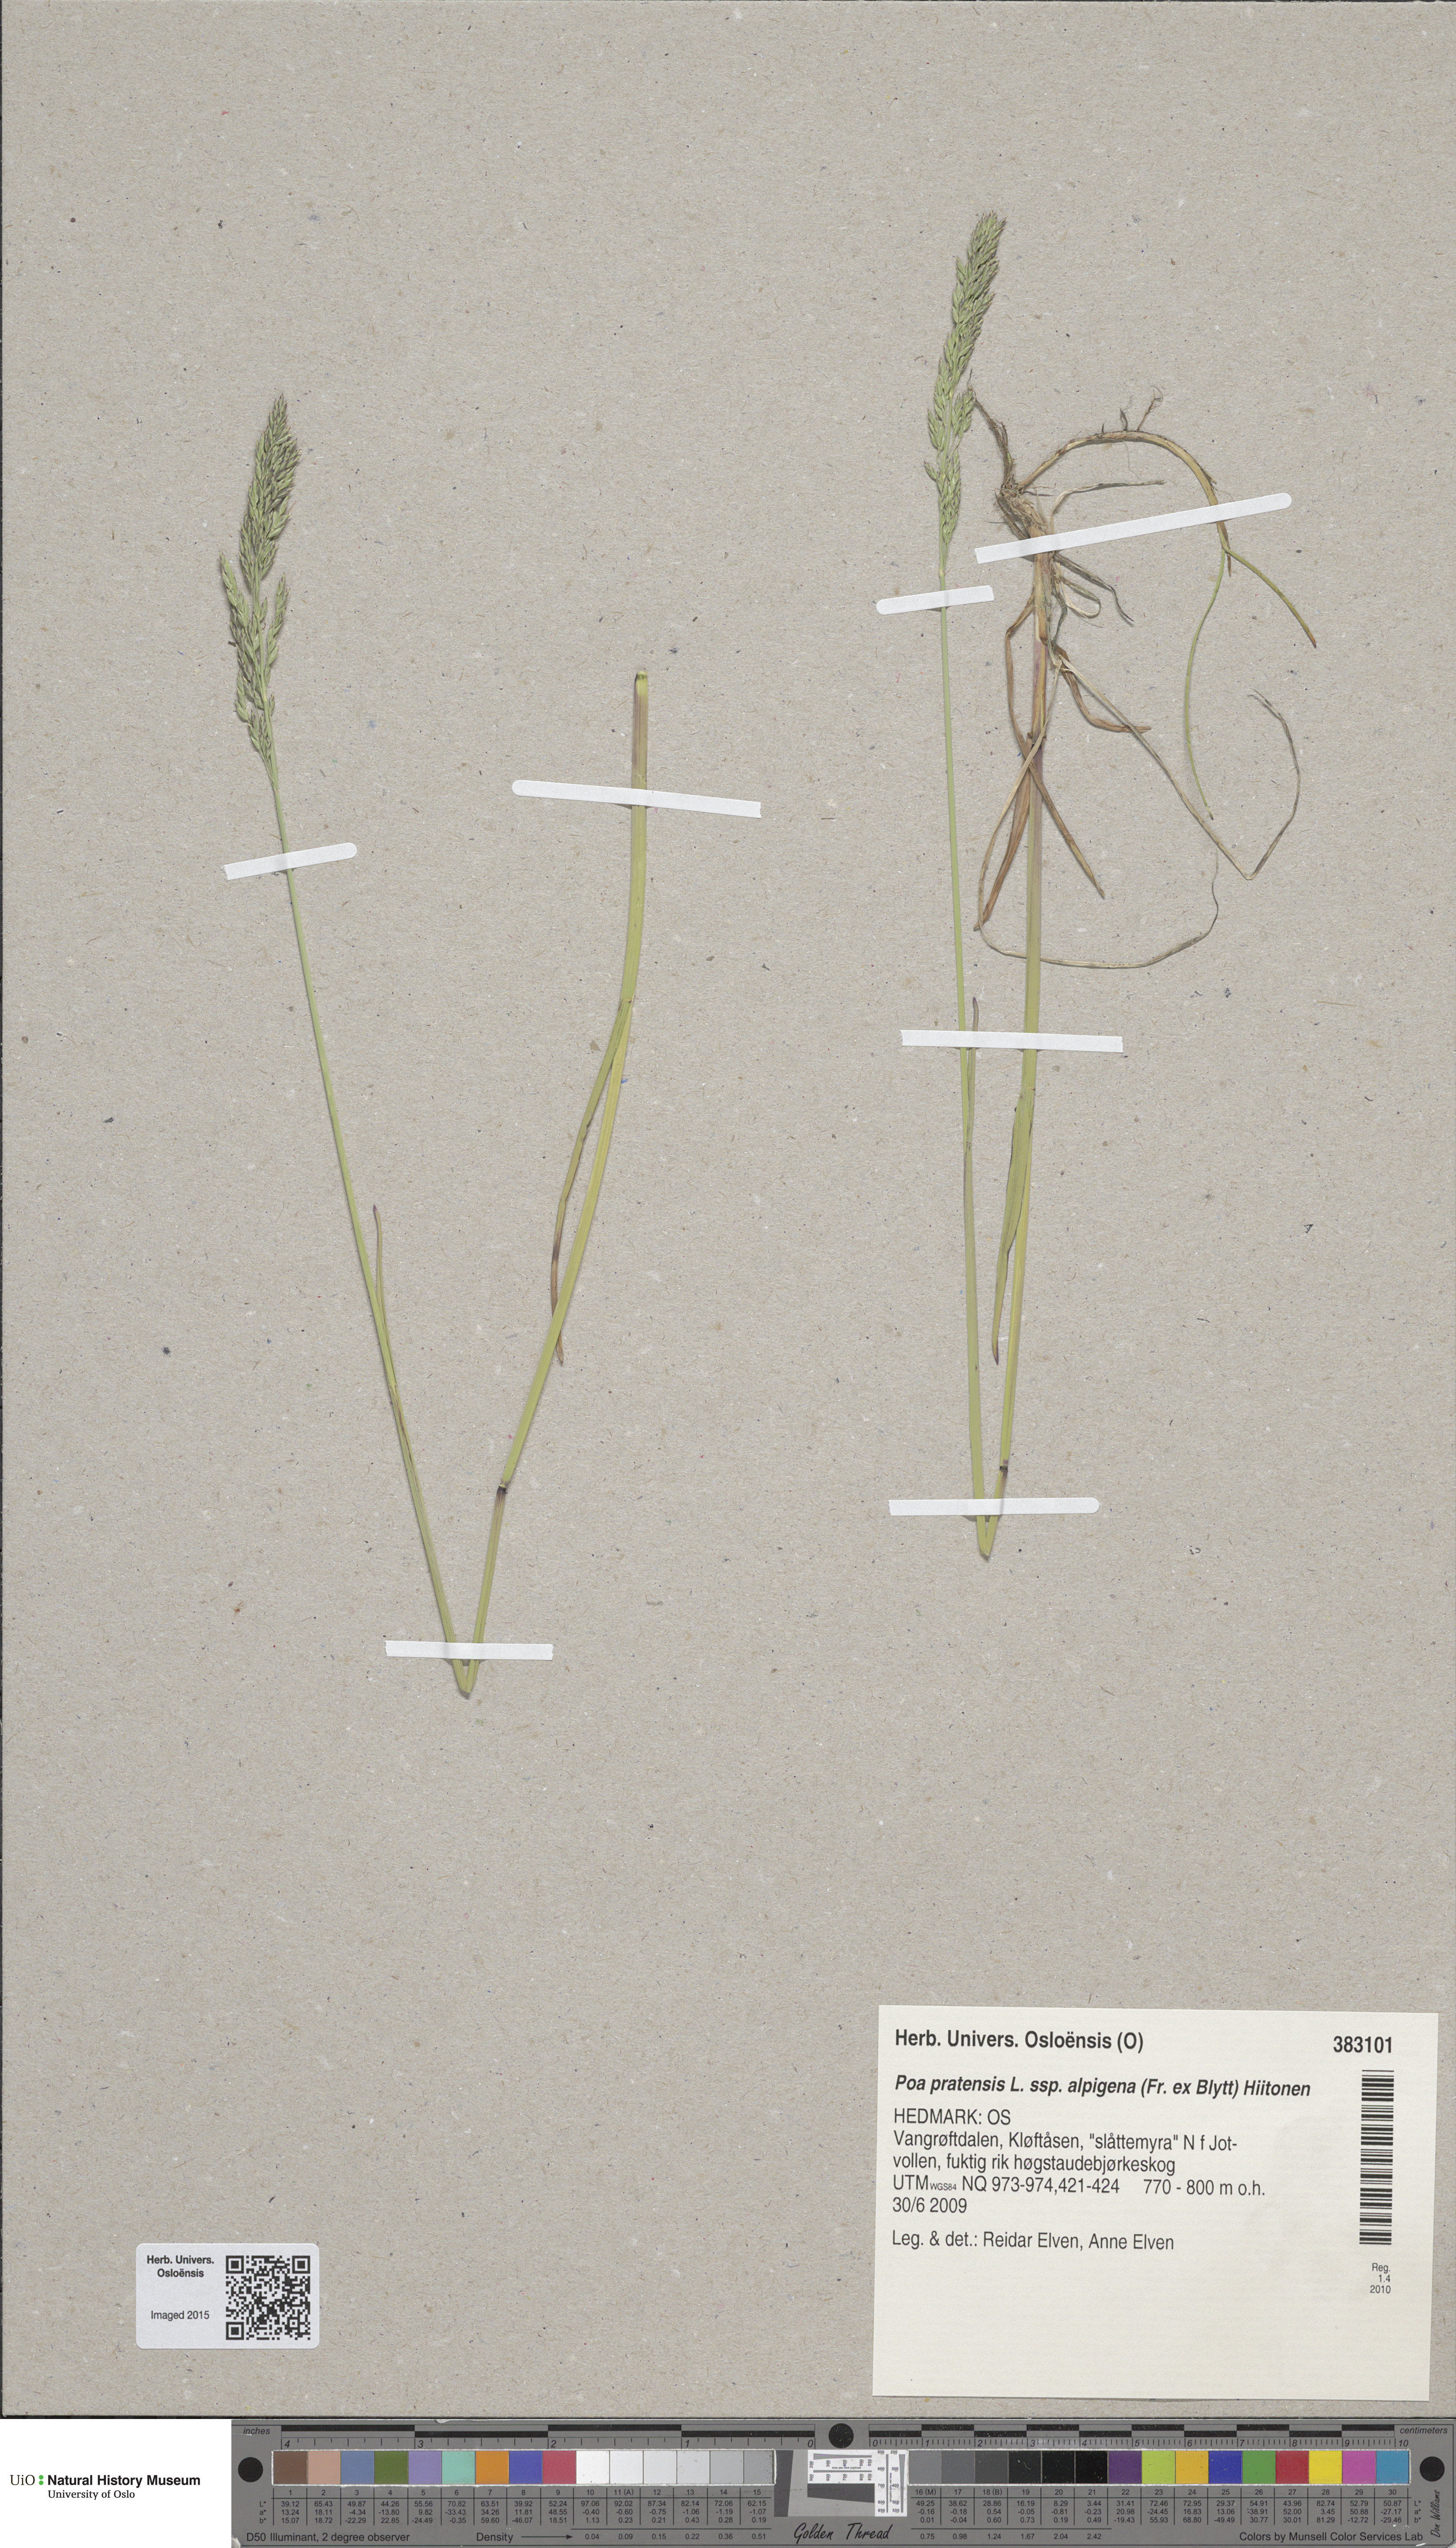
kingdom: Plantae
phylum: Tracheophyta
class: Liliopsida
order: Poales
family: Poaceae
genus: Poa
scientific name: Poa alpigena
